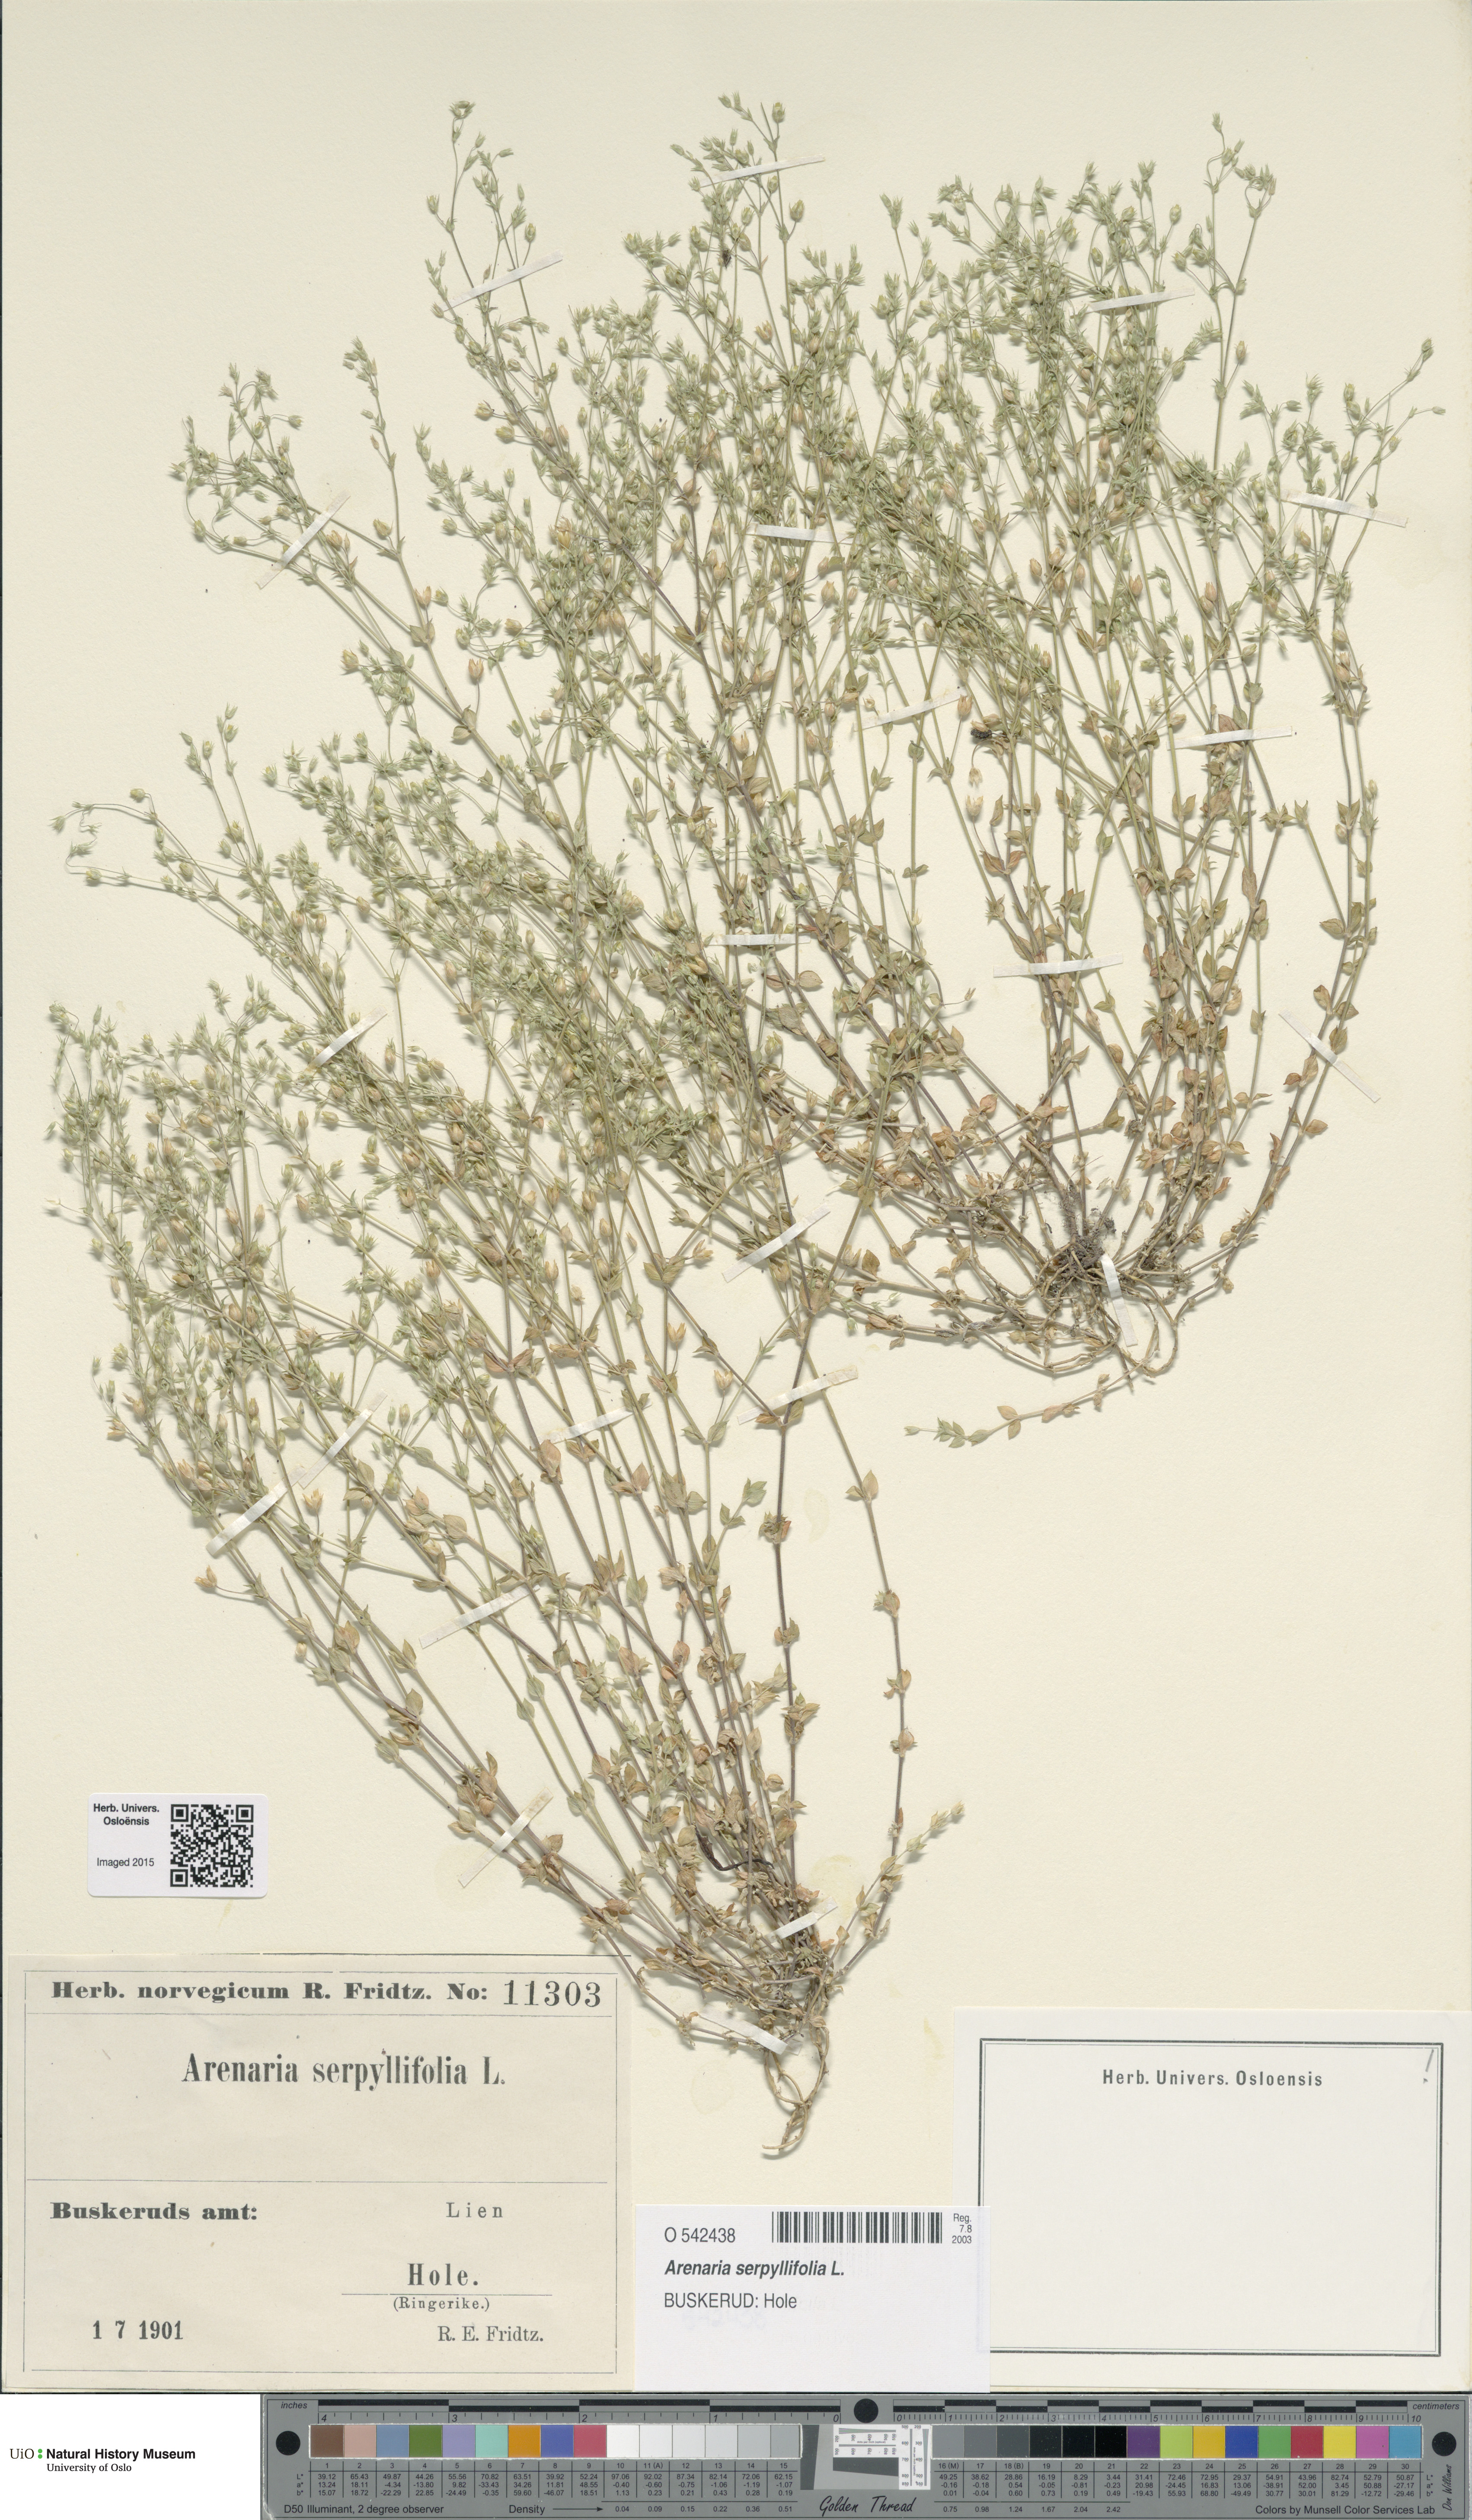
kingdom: Plantae
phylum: Tracheophyta
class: Magnoliopsida
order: Caryophyllales
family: Caryophyllaceae
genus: Arenaria
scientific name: Arenaria serpyllifolia
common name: Thyme-leaved sandwort
